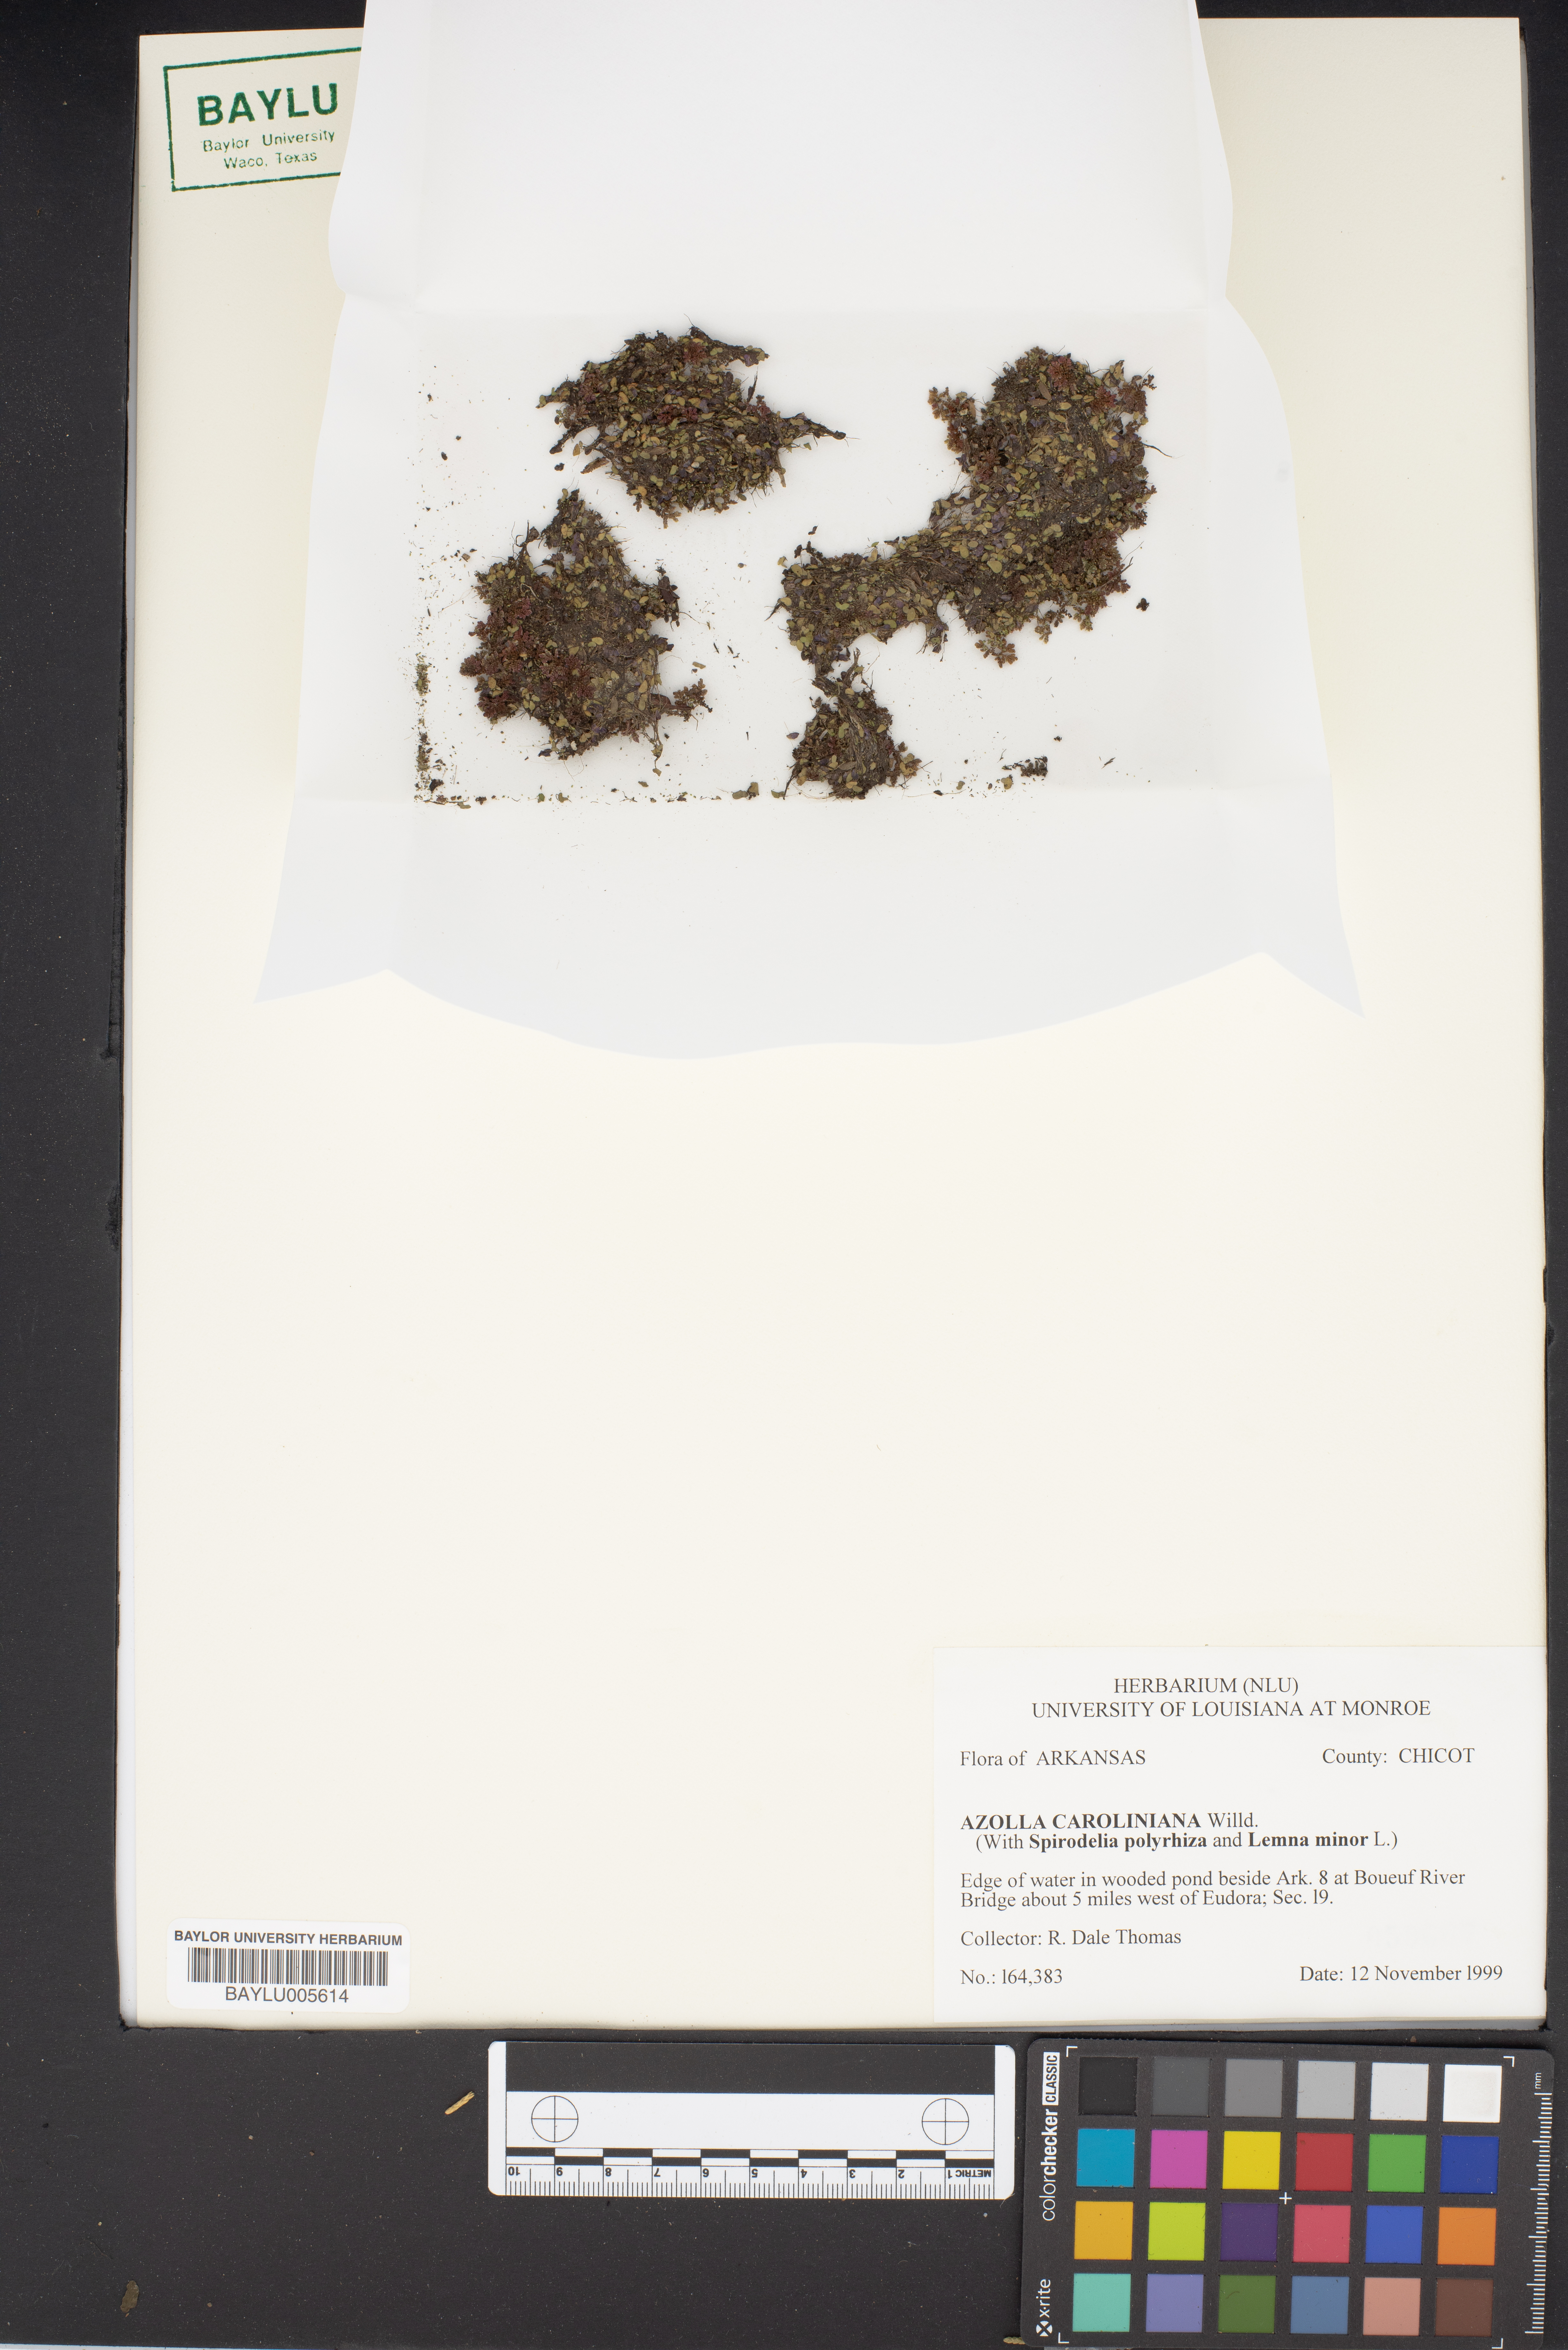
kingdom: Plantae
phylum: Tracheophyta
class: Polypodiopsida
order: Salviniales
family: Salviniaceae
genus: Azolla
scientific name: Azolla caroliniana
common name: Carolina mosquitofern
